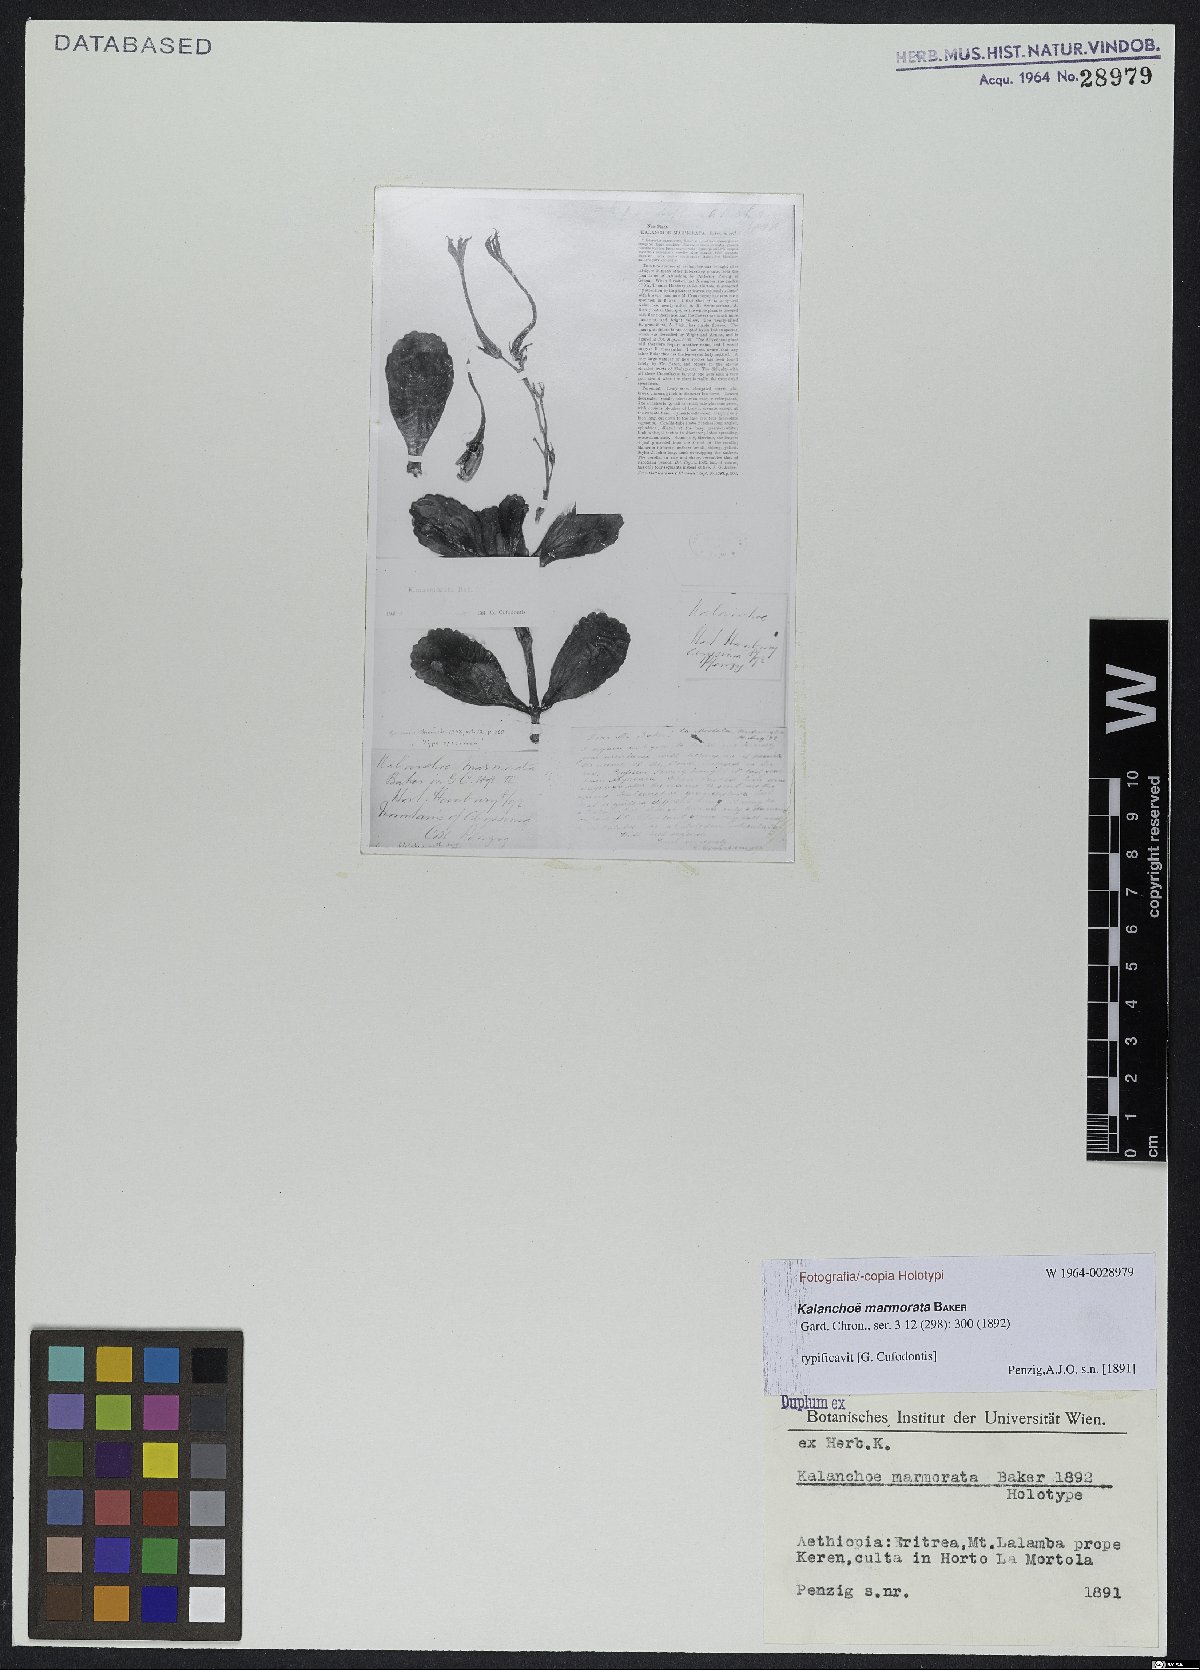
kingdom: Plantae
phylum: Tracheophyta
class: Magnoliopsida
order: Saxifragales
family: Crassulaceae
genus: Kalanchoe
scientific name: Kalanchoe marmorata
